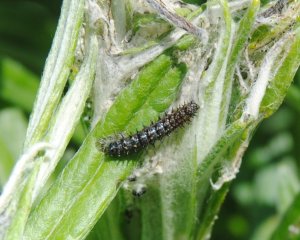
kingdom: Animalia
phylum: Arthropoda
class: Insecta
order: Lepidoptera
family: Nymphalidae
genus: Vanessa
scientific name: Vanessa virginiensis
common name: American Lady
